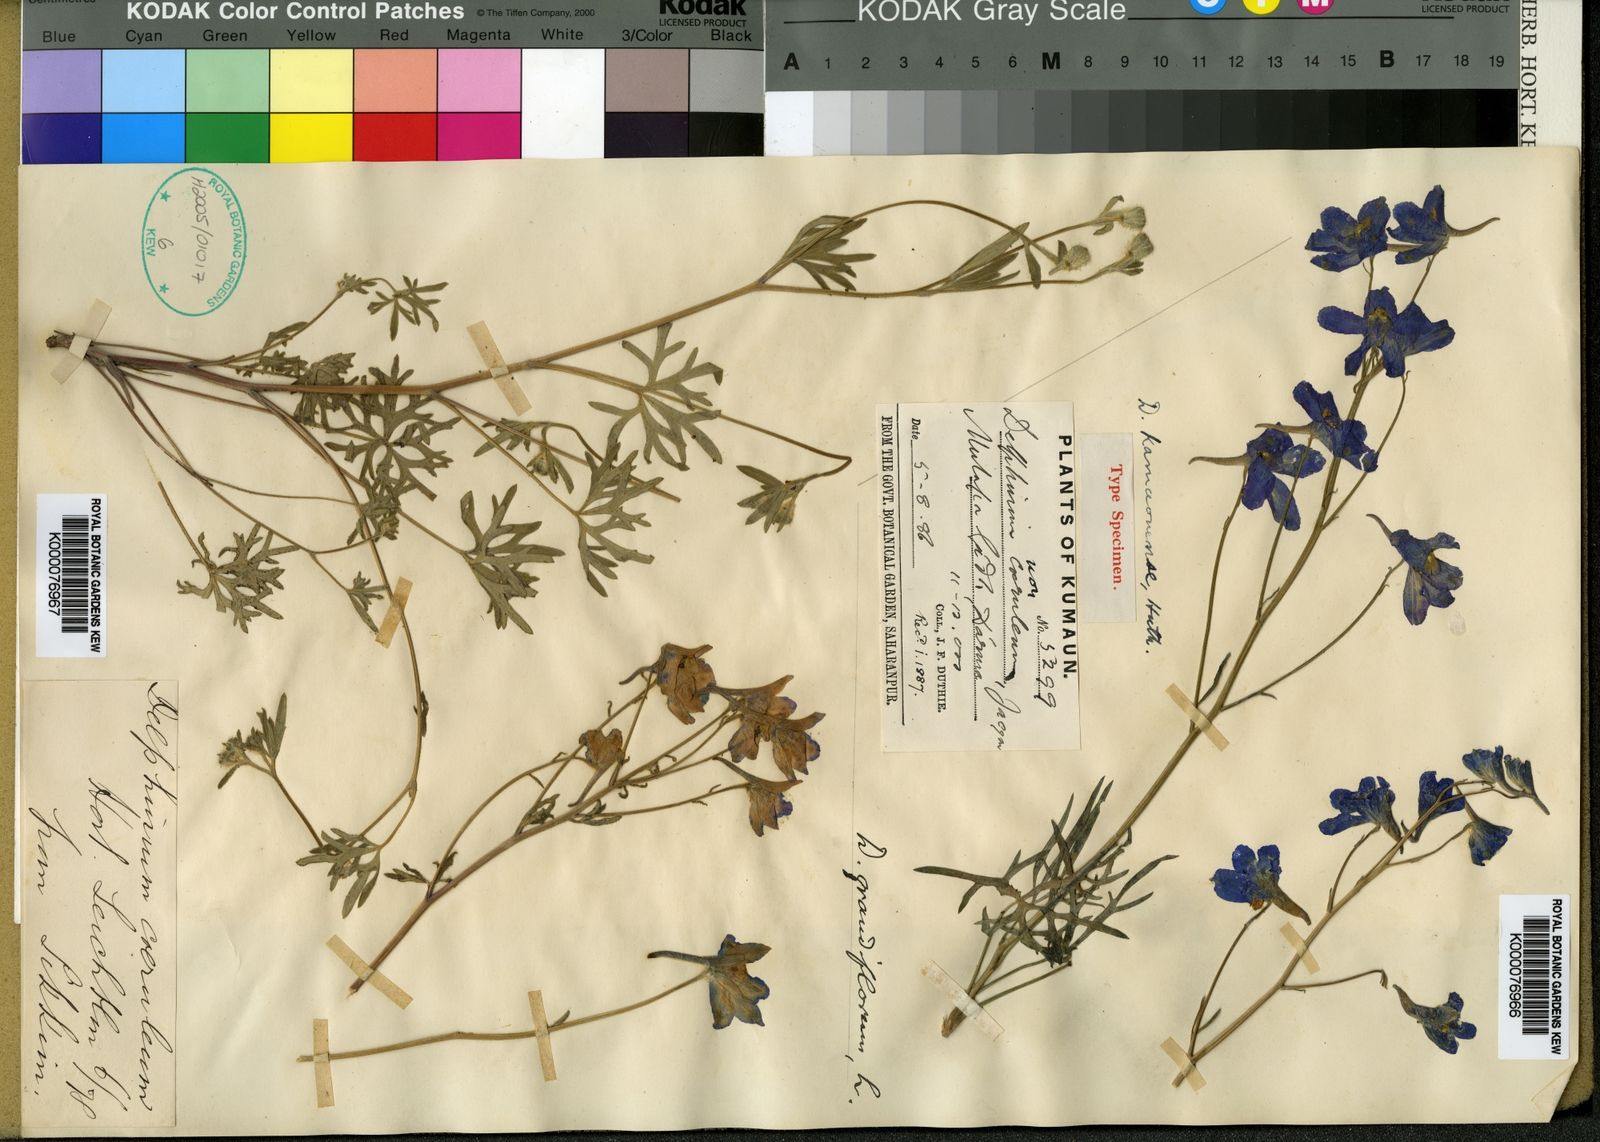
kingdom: Plantae
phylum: Tracheophyta
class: Magnoliopsida
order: Ranunculales
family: Ranunculaceae
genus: Delphinium
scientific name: Delphinium kamaonense
